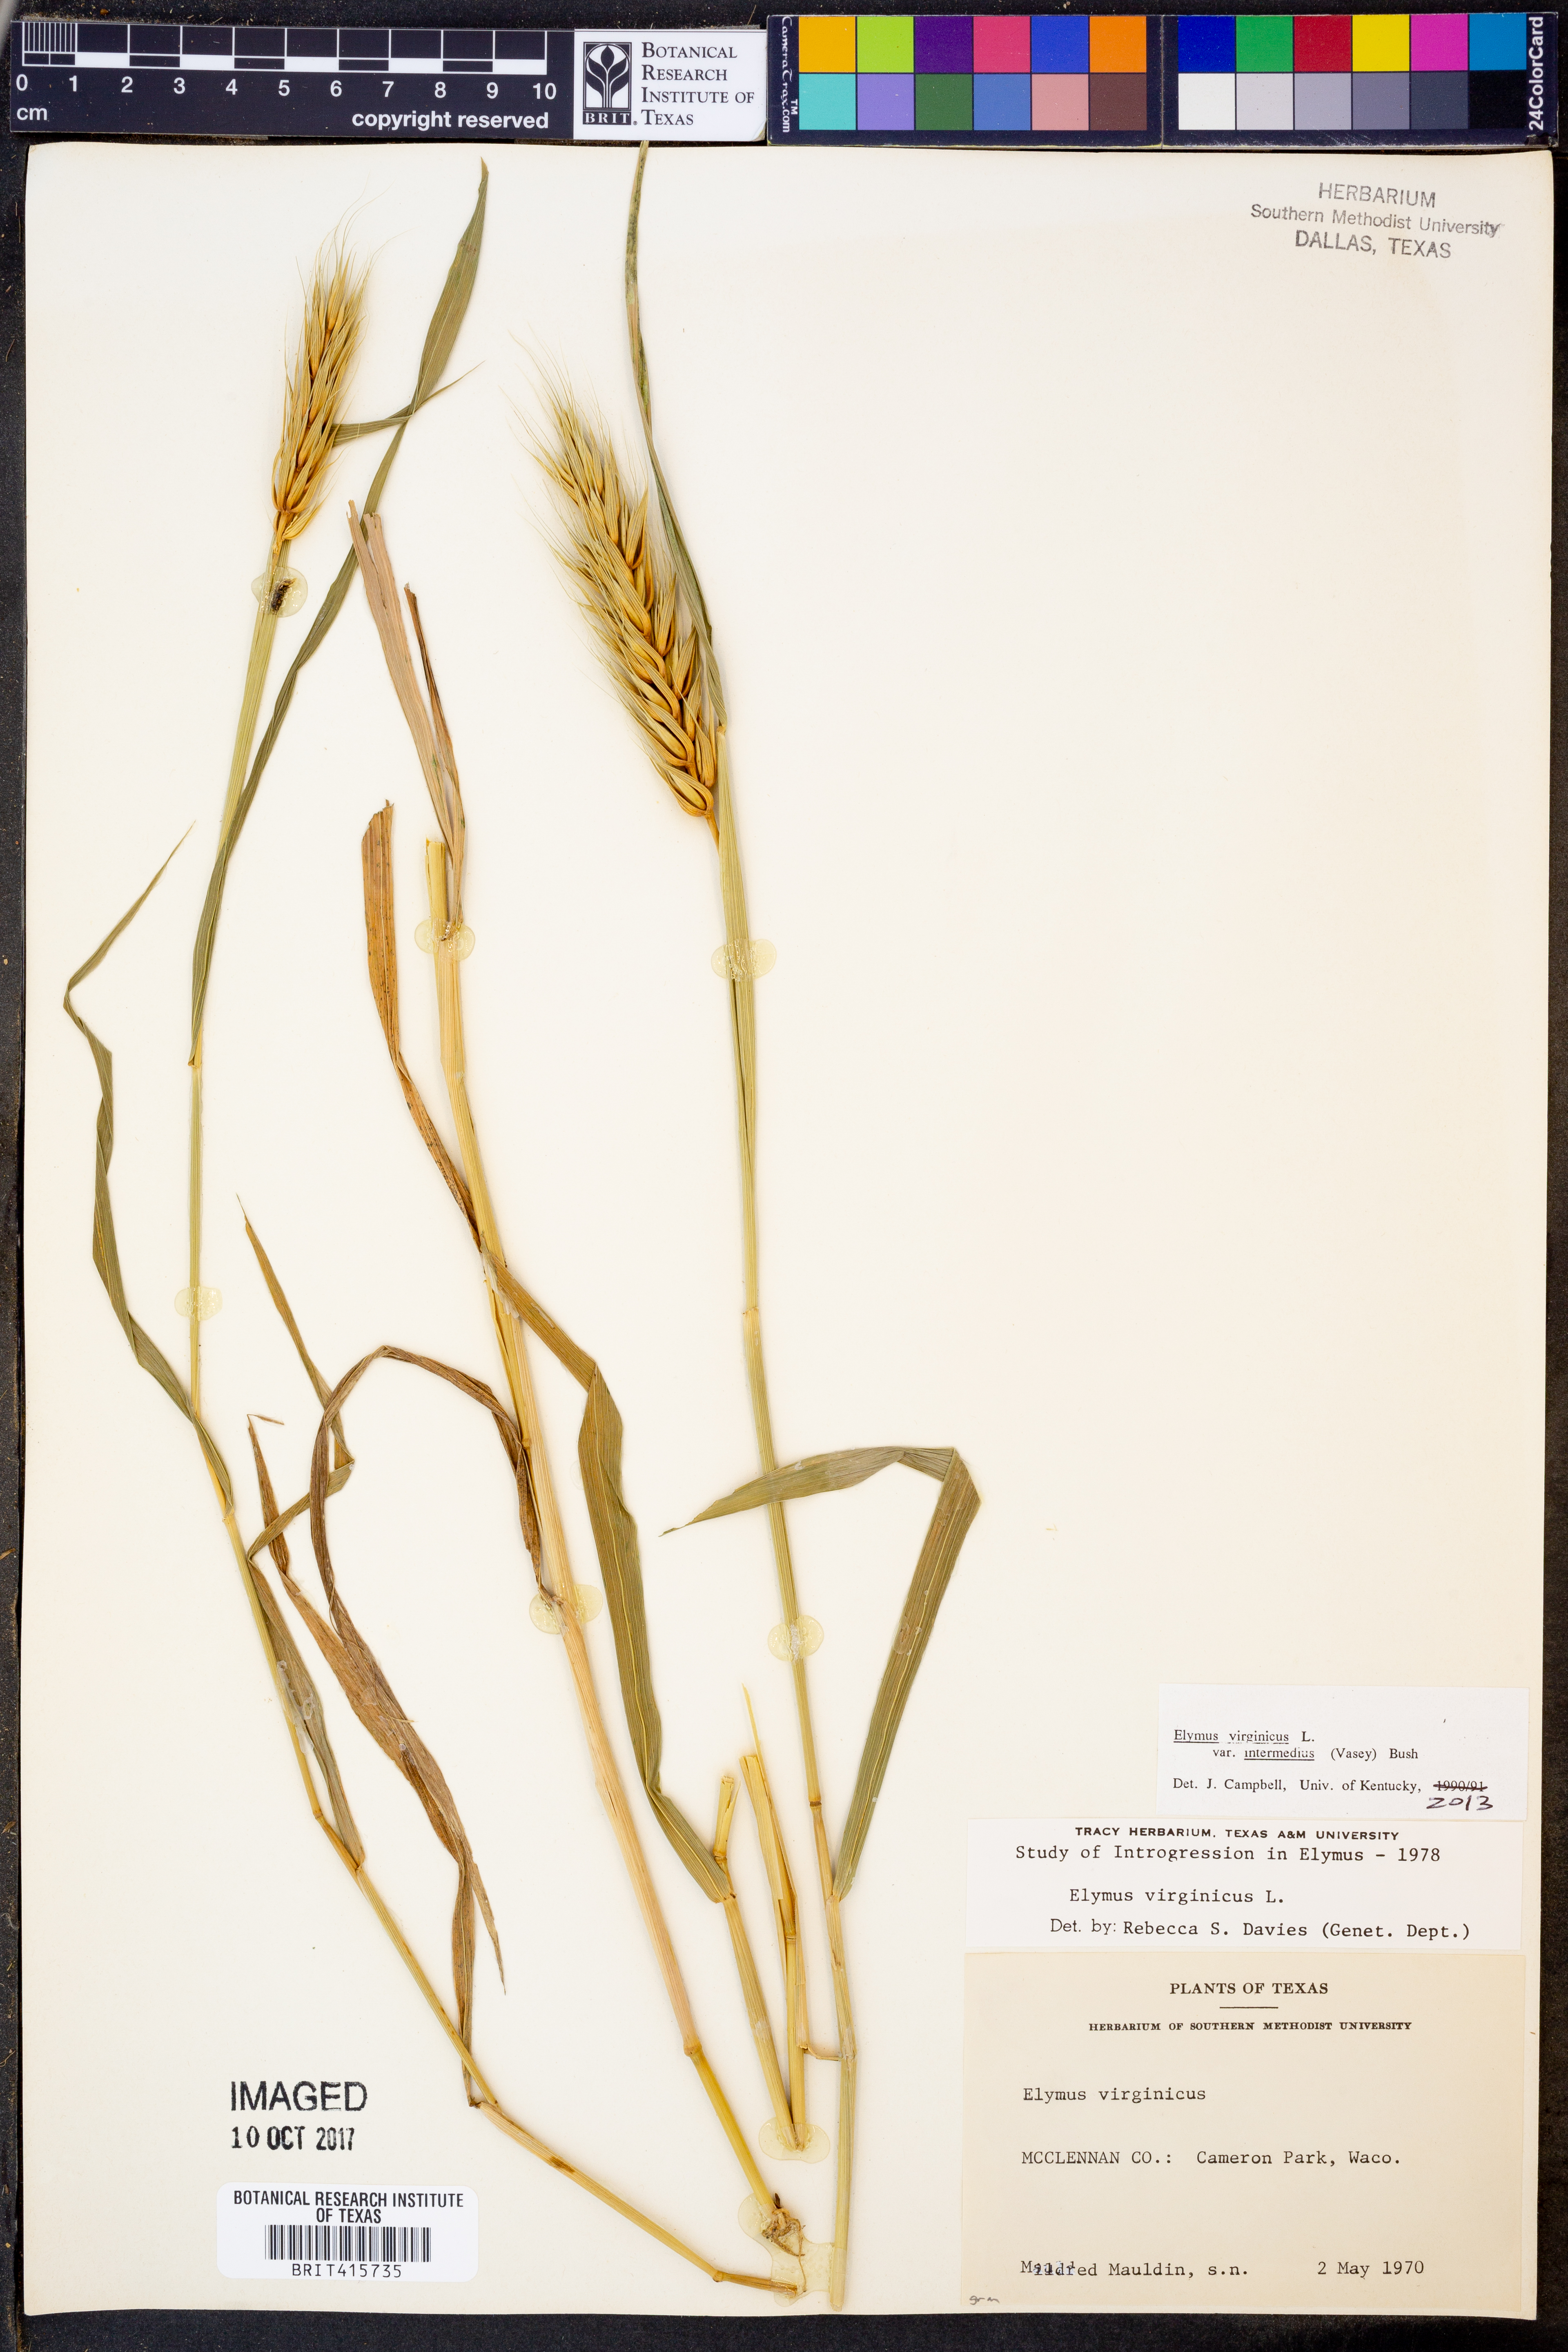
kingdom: Plantae
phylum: Tracheophyta
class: Liliopsida
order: Poales
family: Poaceae
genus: Elymus
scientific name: Elymus virginicus
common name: Common eastern wildrye
